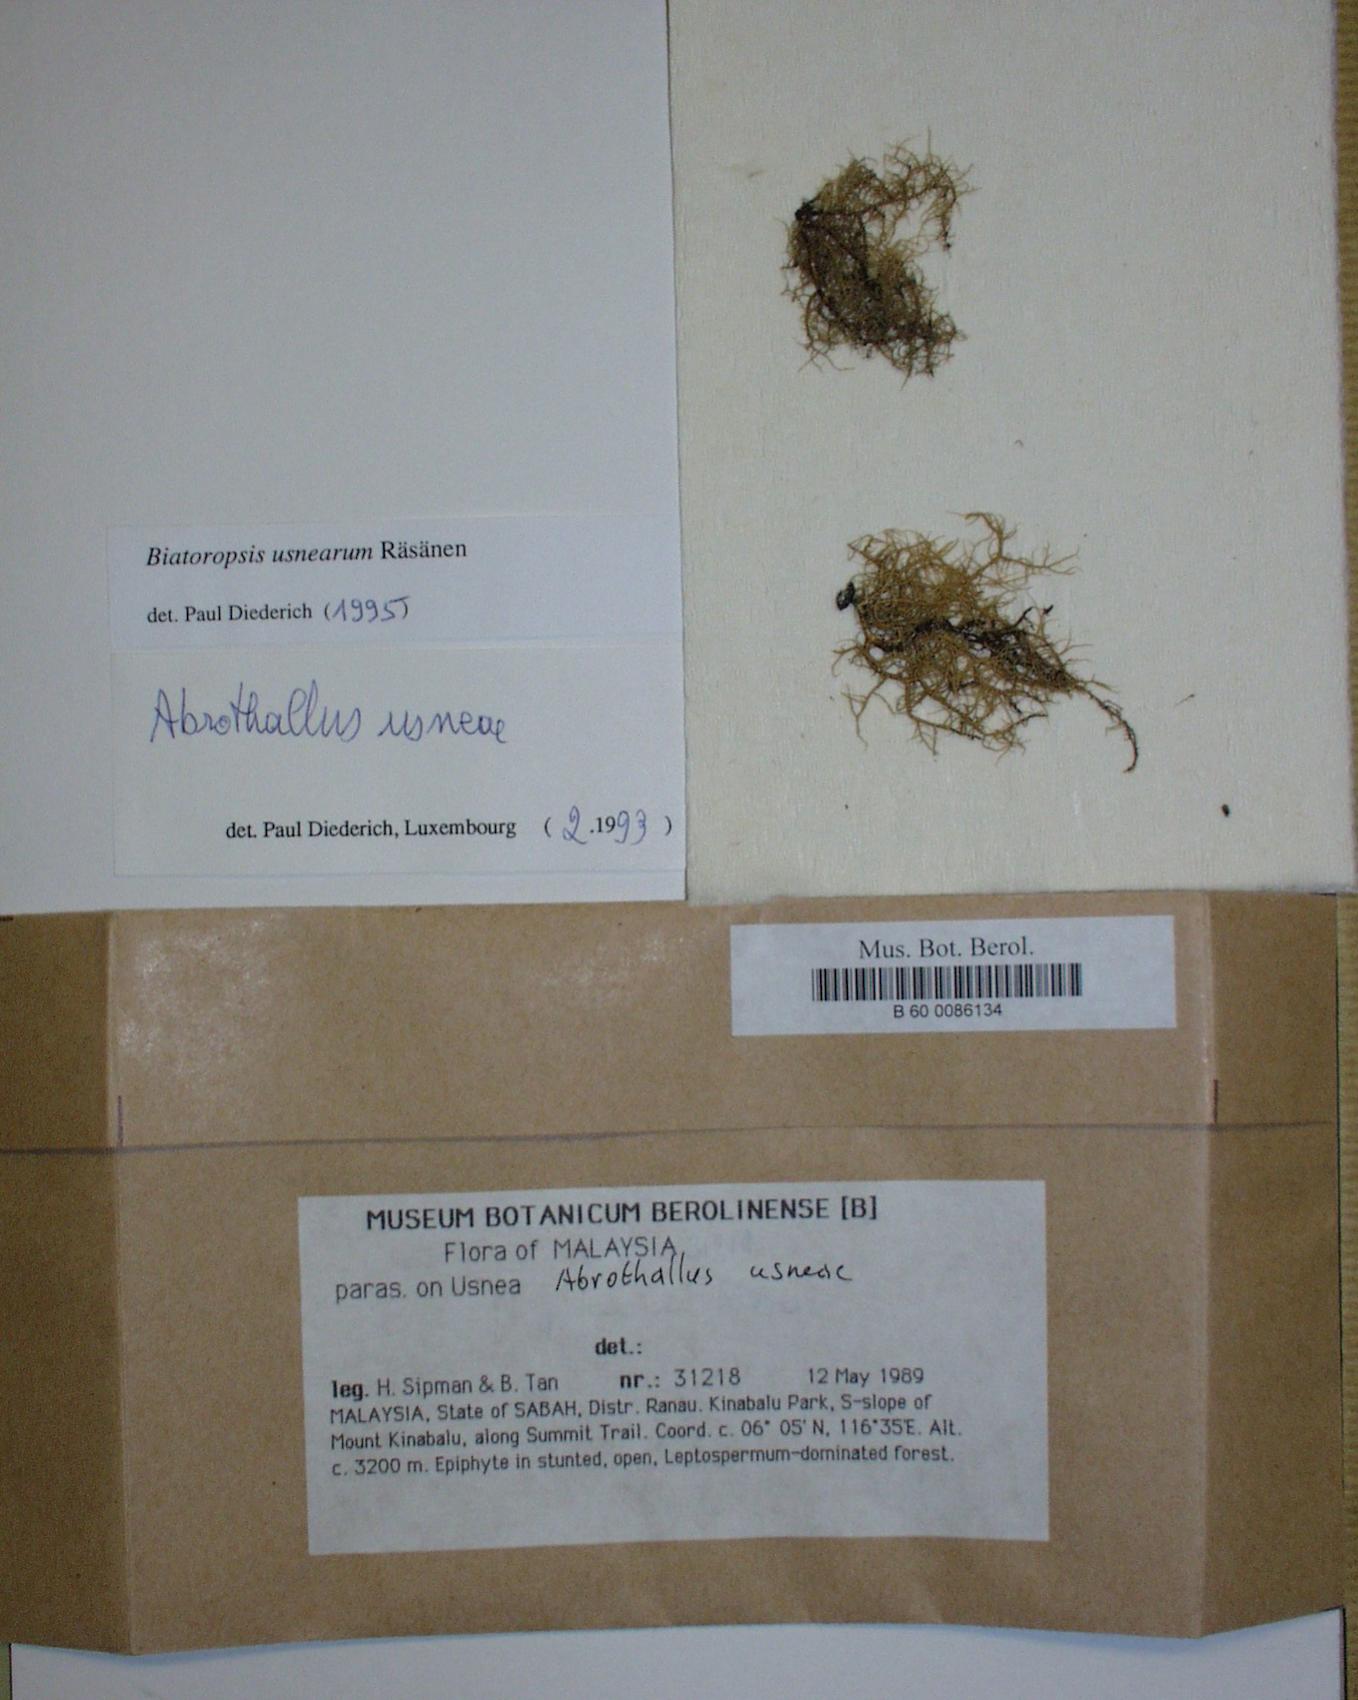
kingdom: Fungi
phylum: Ascomycota
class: Dothideomycetes
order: Abrothallales
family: Abrothallaceae
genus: Abrothallus
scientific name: Abrothallus usneae
